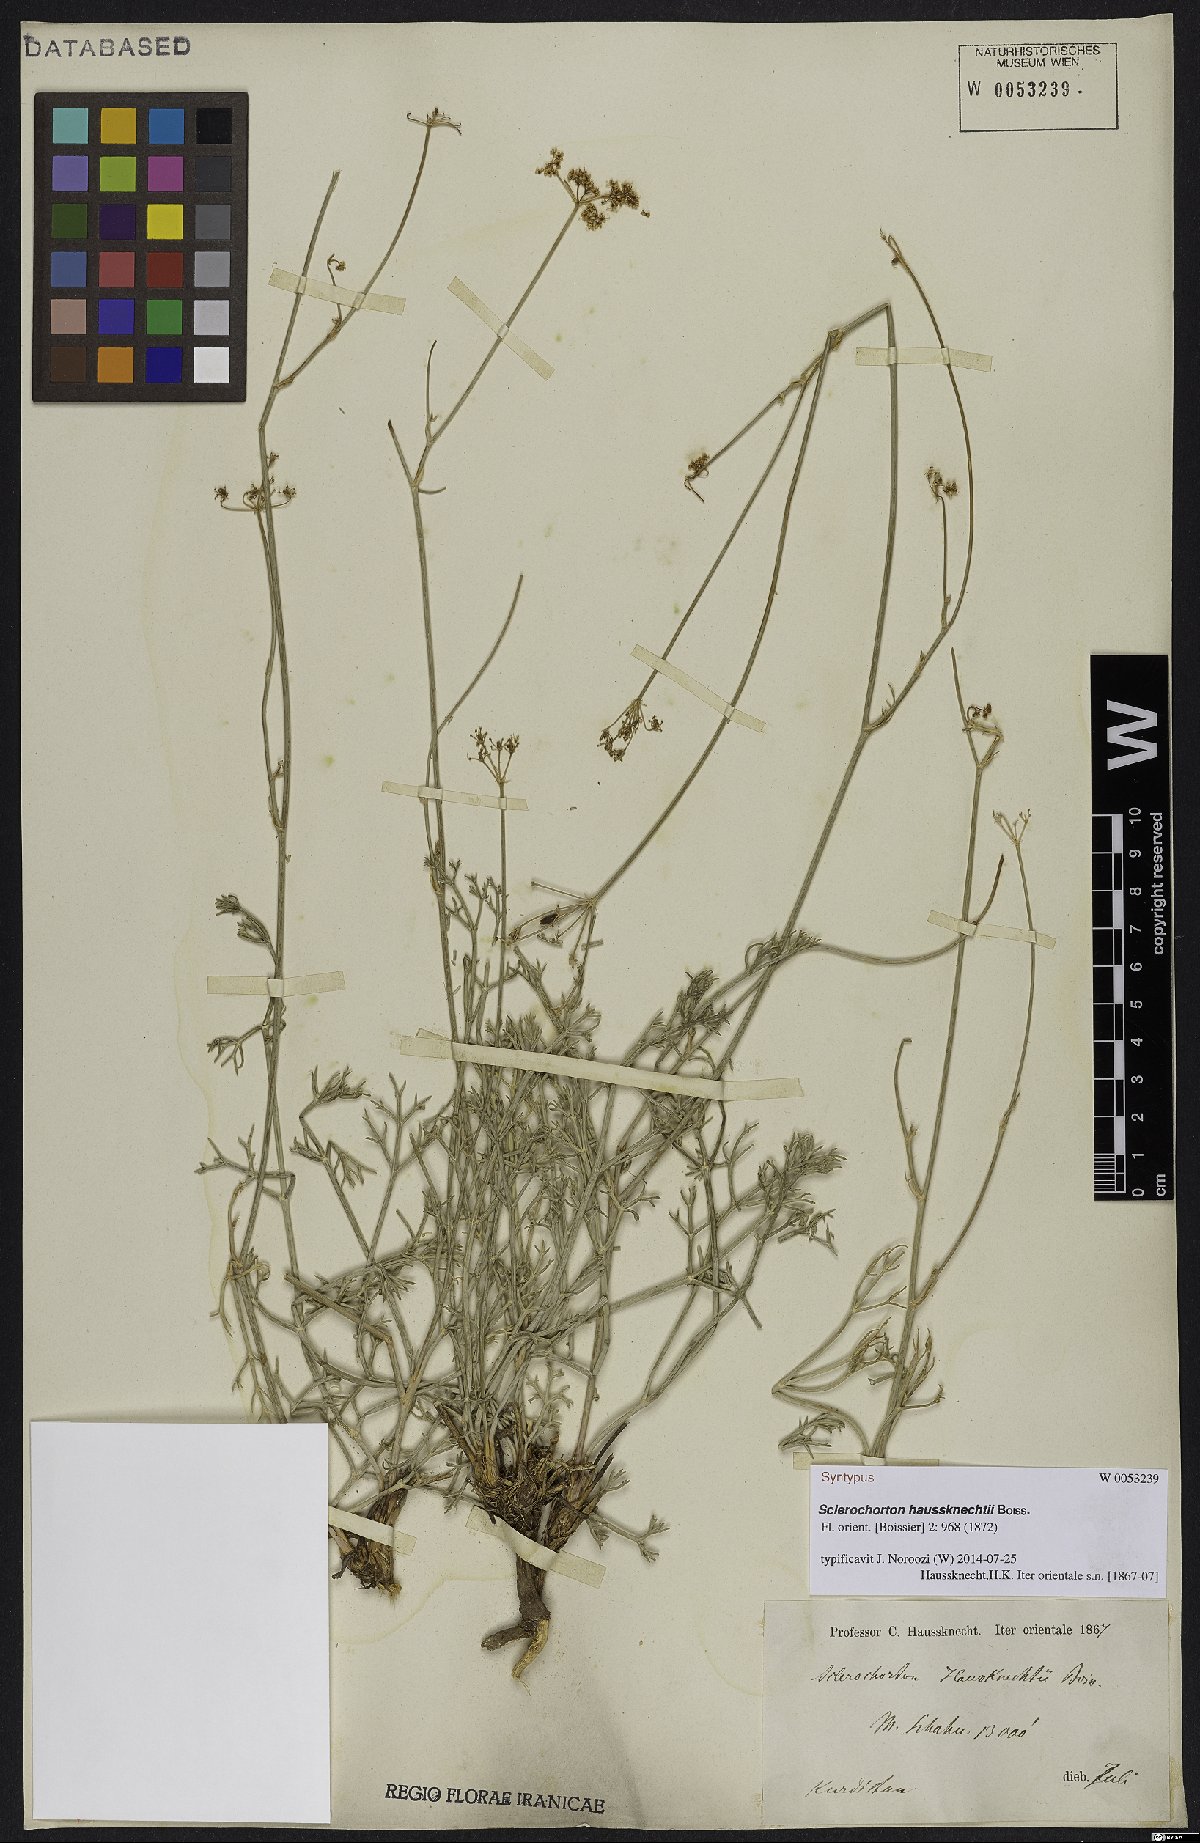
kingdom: Plantae
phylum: Tracheophyta
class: Magnoliopsida
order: Apiales
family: Apiaceae
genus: Sclerochorton
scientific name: Sclerochorton haussknechtii
